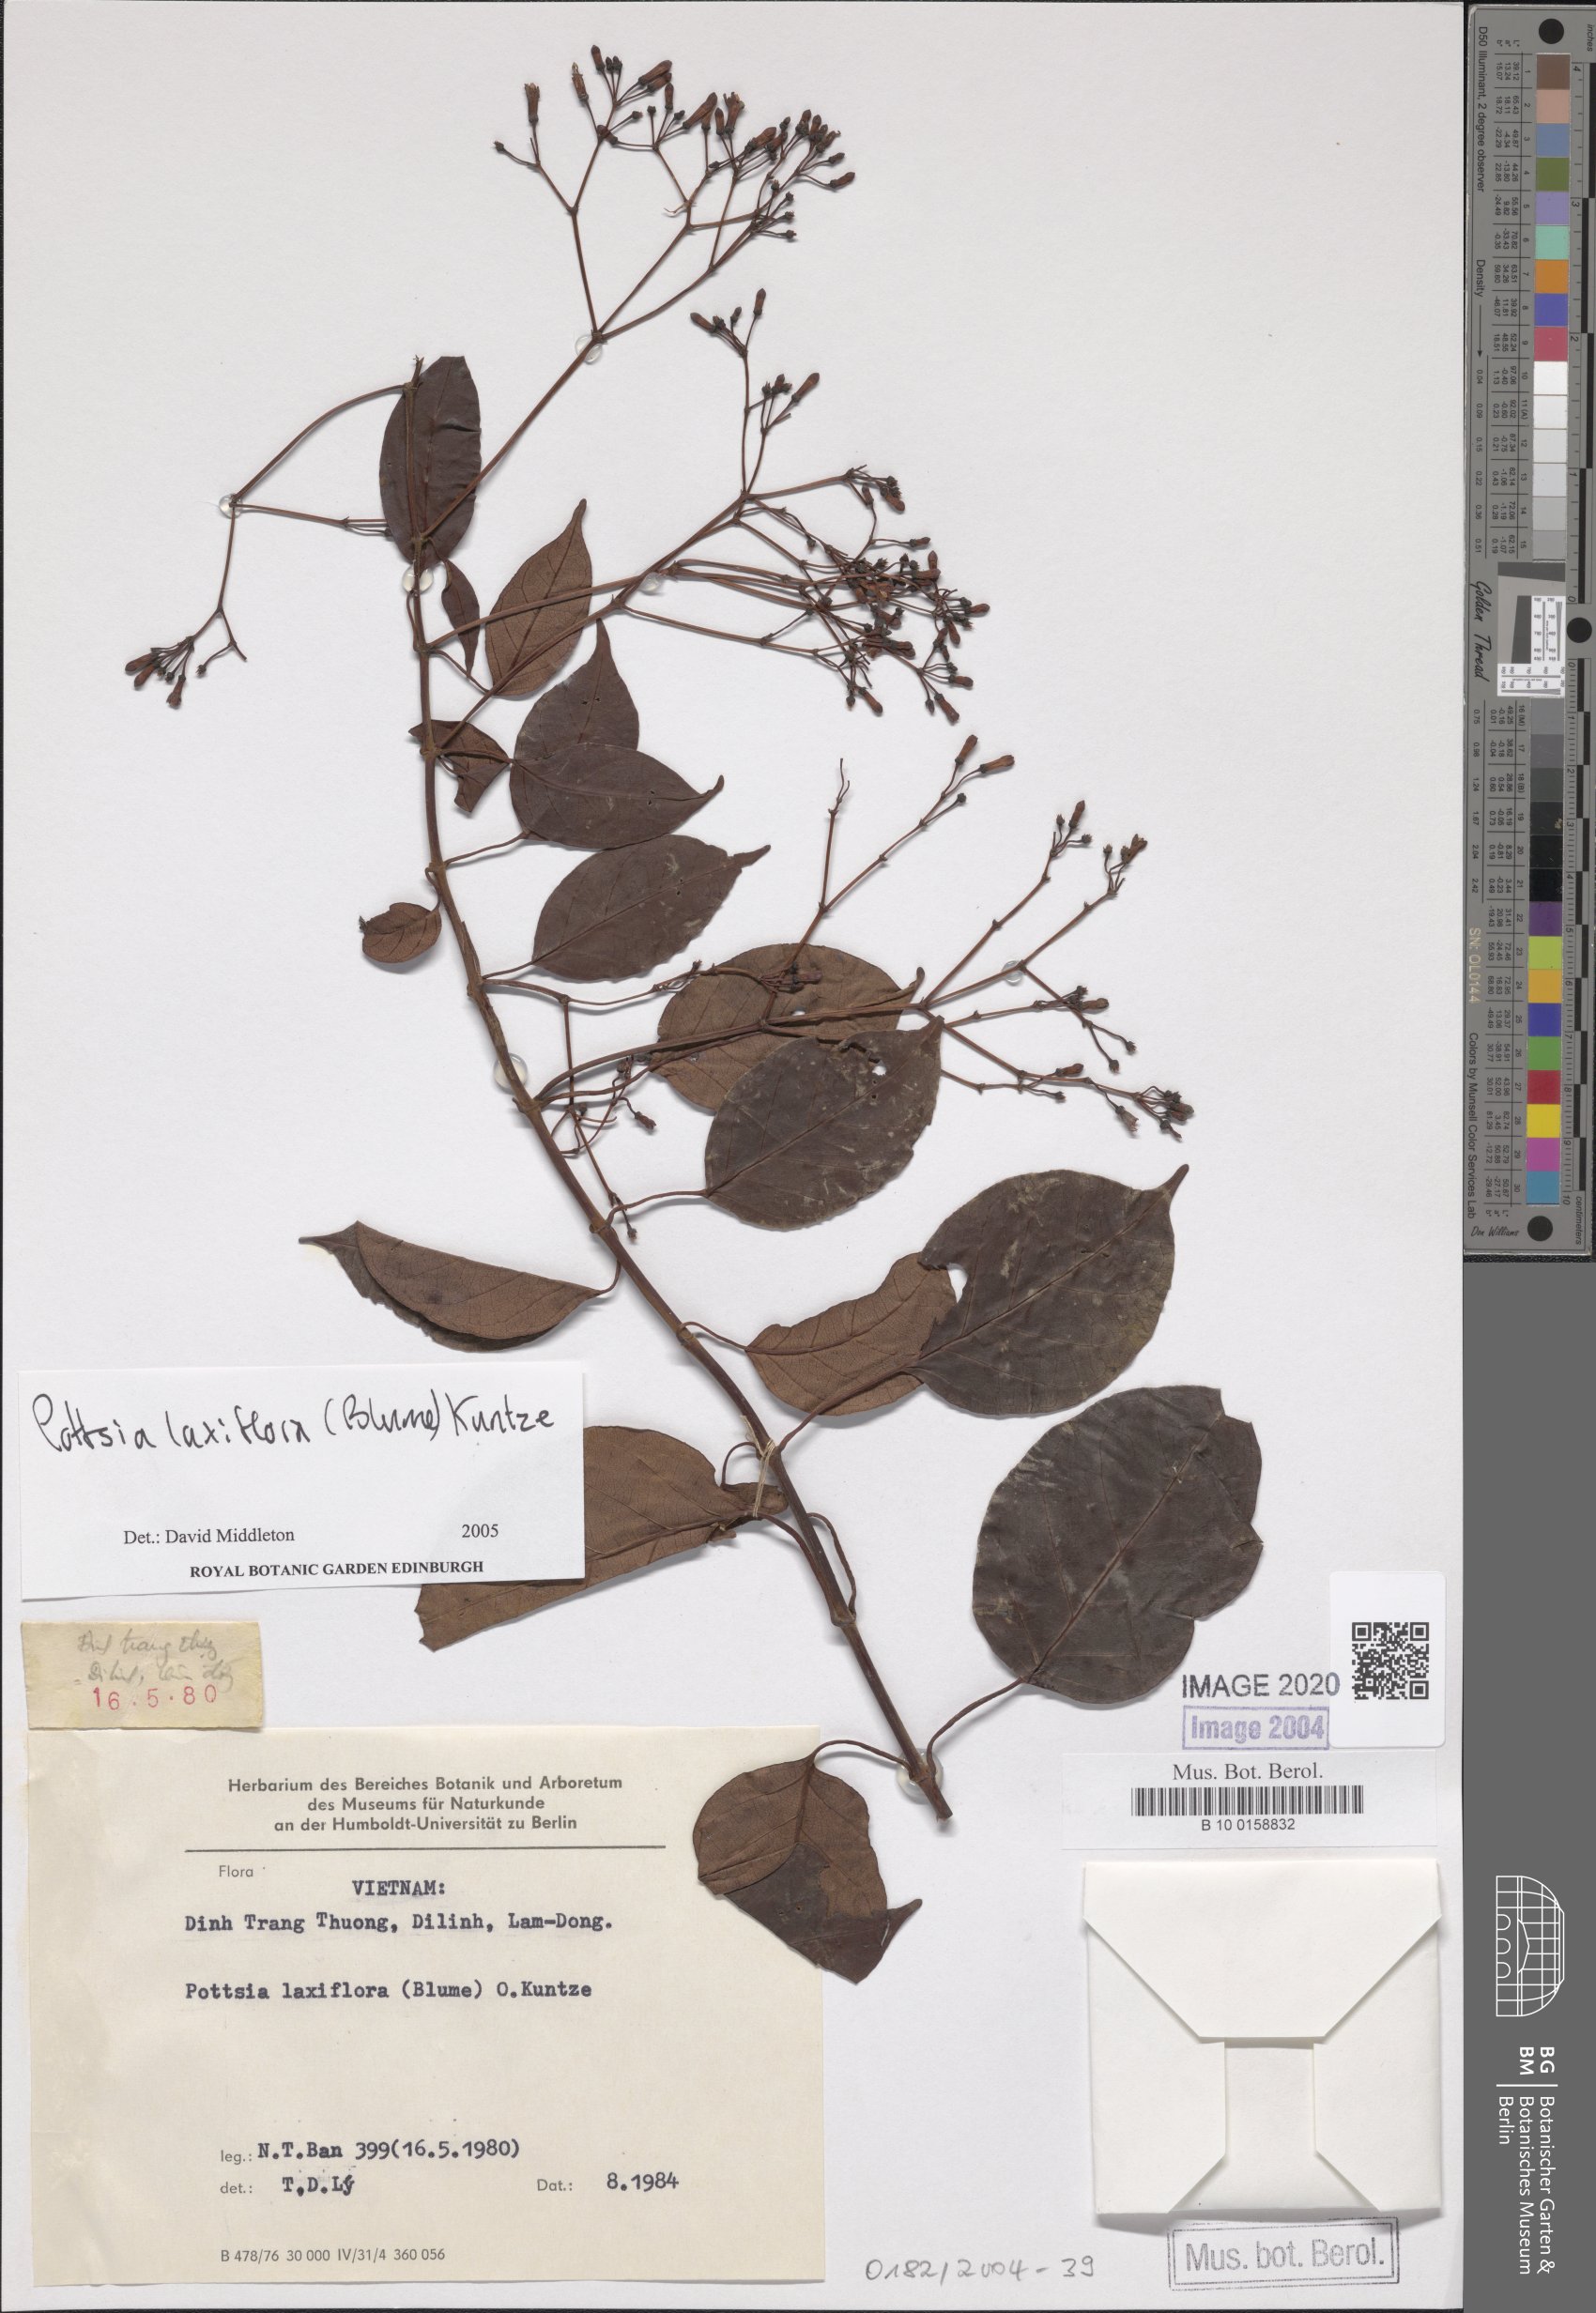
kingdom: Plantae
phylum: Tracheophyta
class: Magnoliopsida
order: Gentianales
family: Apocynaceae
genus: Pottsia
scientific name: Pottsia laxiflora
